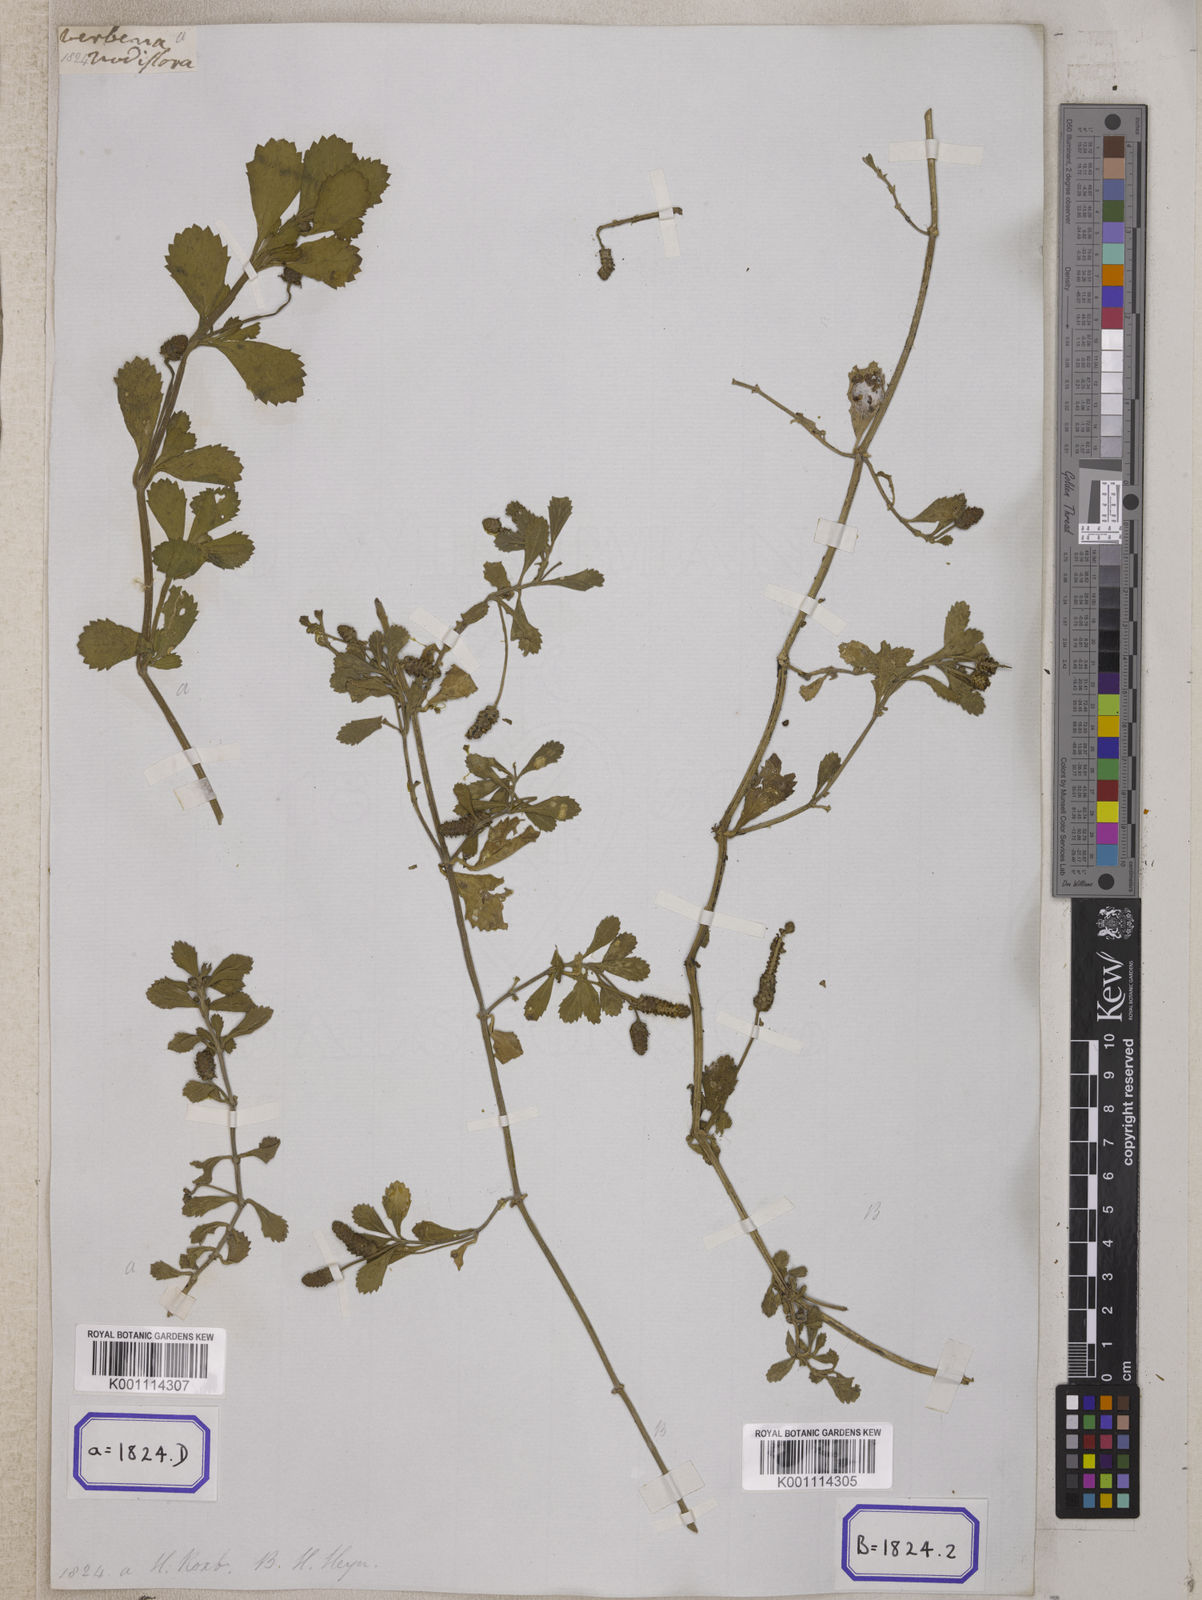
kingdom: Plantae
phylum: Tracheophyta
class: Magnoliopsida
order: Lamiales
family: Verbenaceae
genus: Phyla
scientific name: Phyla nodiflora
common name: Frogfruit
